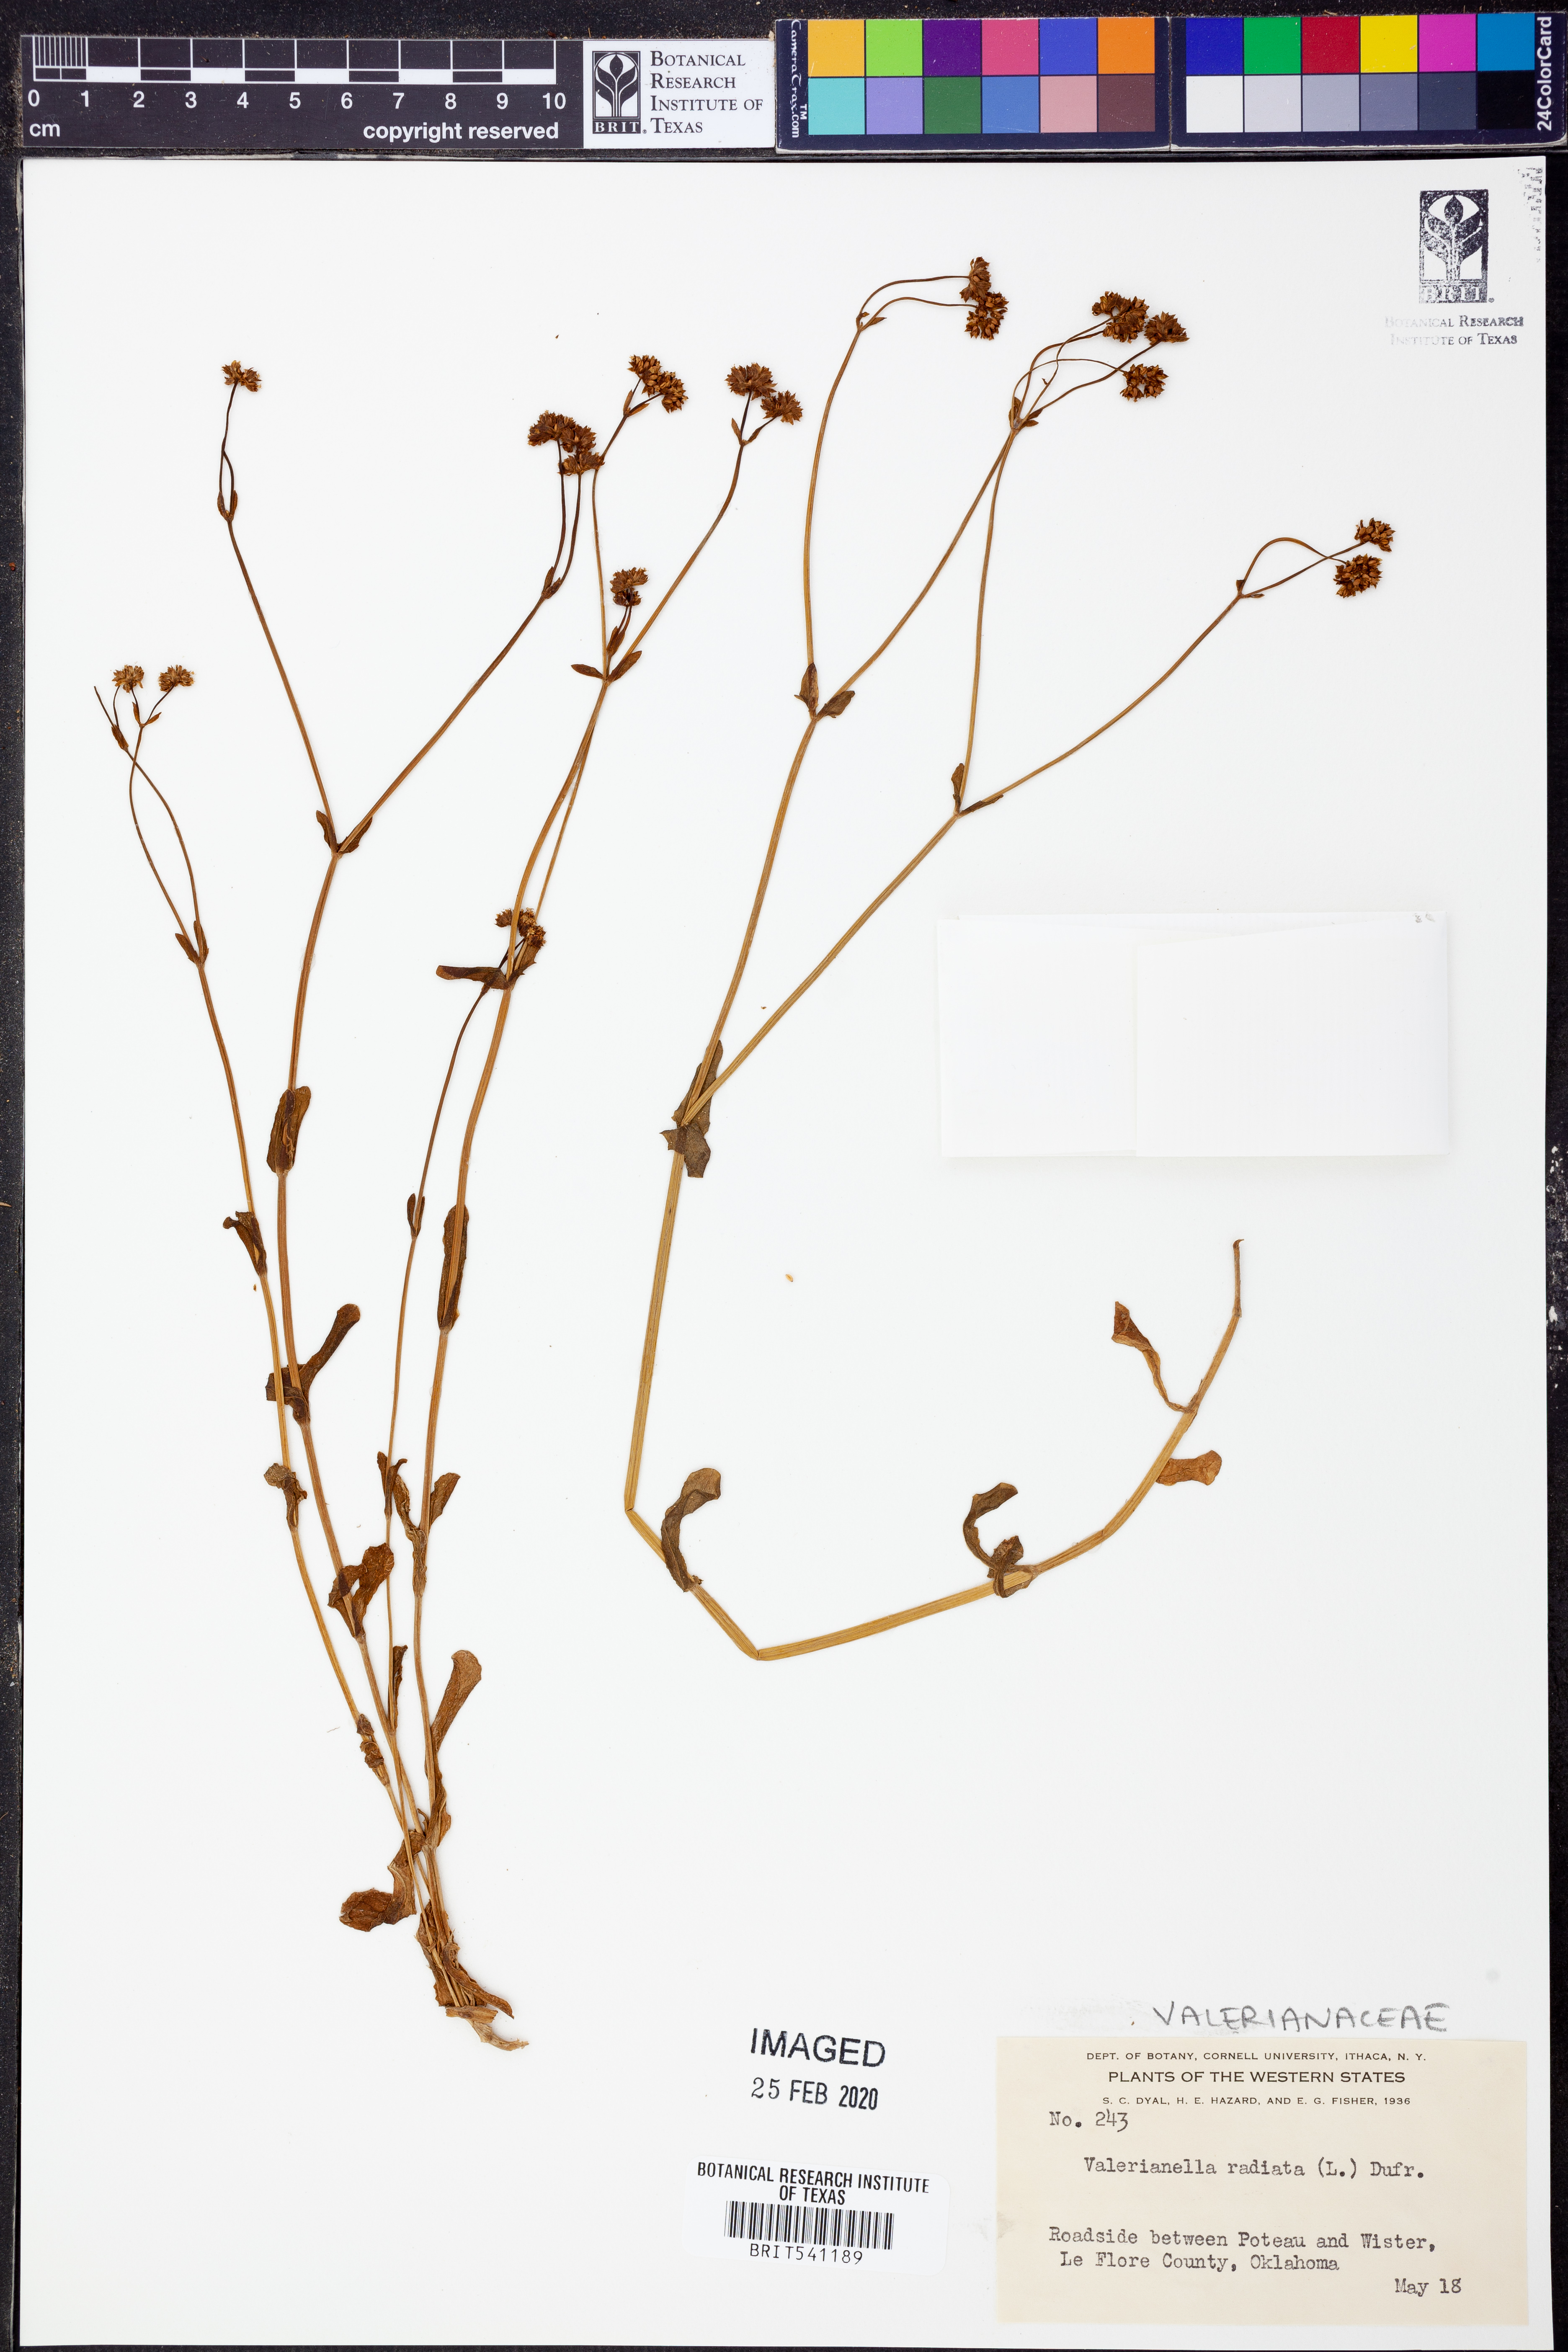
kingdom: Plantae
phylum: Tracheophyta
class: Magnoliopsida
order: Dipsacales
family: Caprifoliaceae
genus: Valerianella
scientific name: Valerianella radiata
